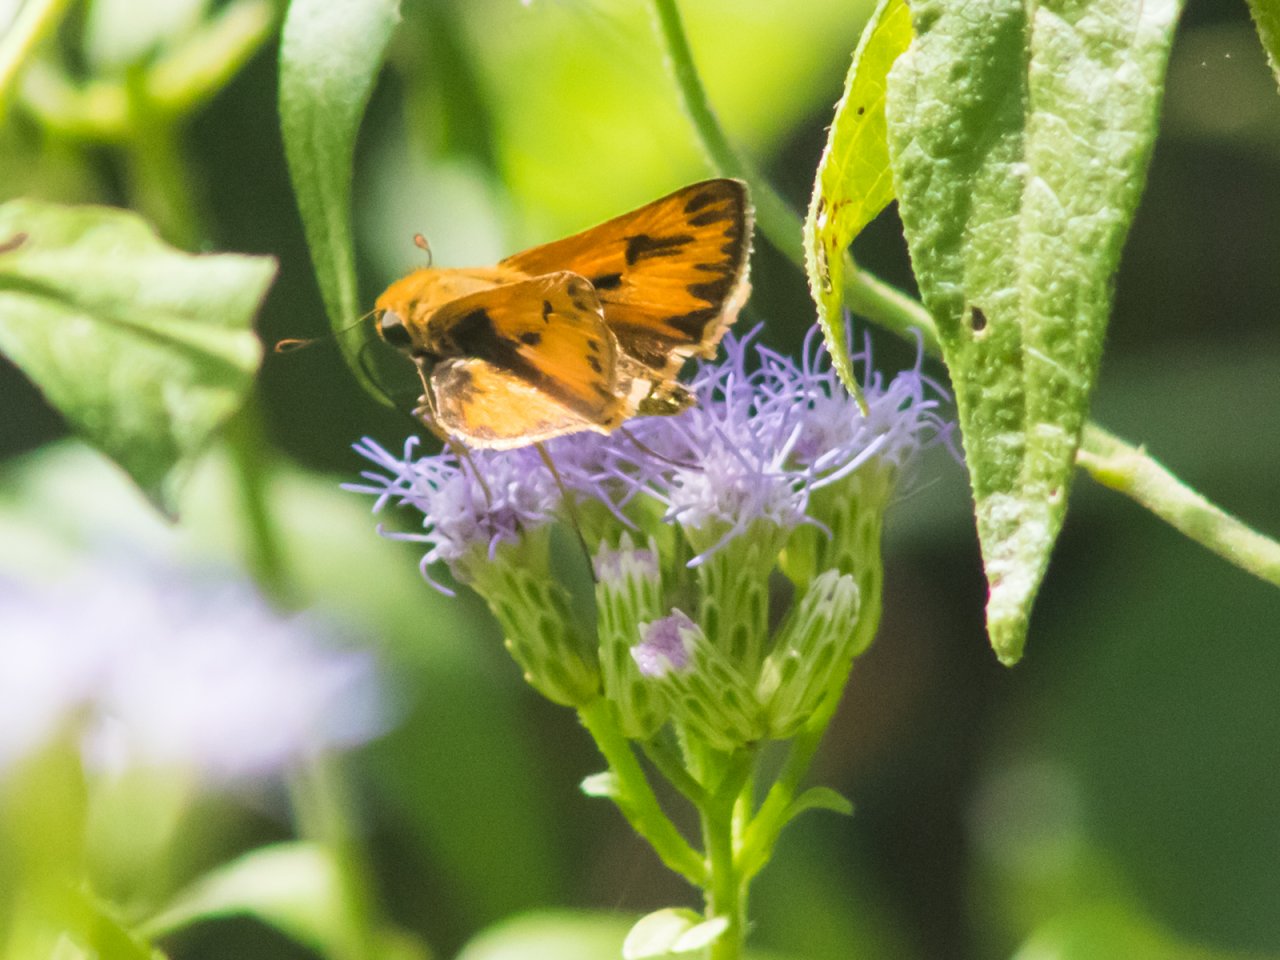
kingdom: Animalia
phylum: Arthropoda
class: Insecta
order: Lepidoptera
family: Hesperiidae
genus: Hylephila
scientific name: Hylephila phyleus
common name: Fiery Skipper
